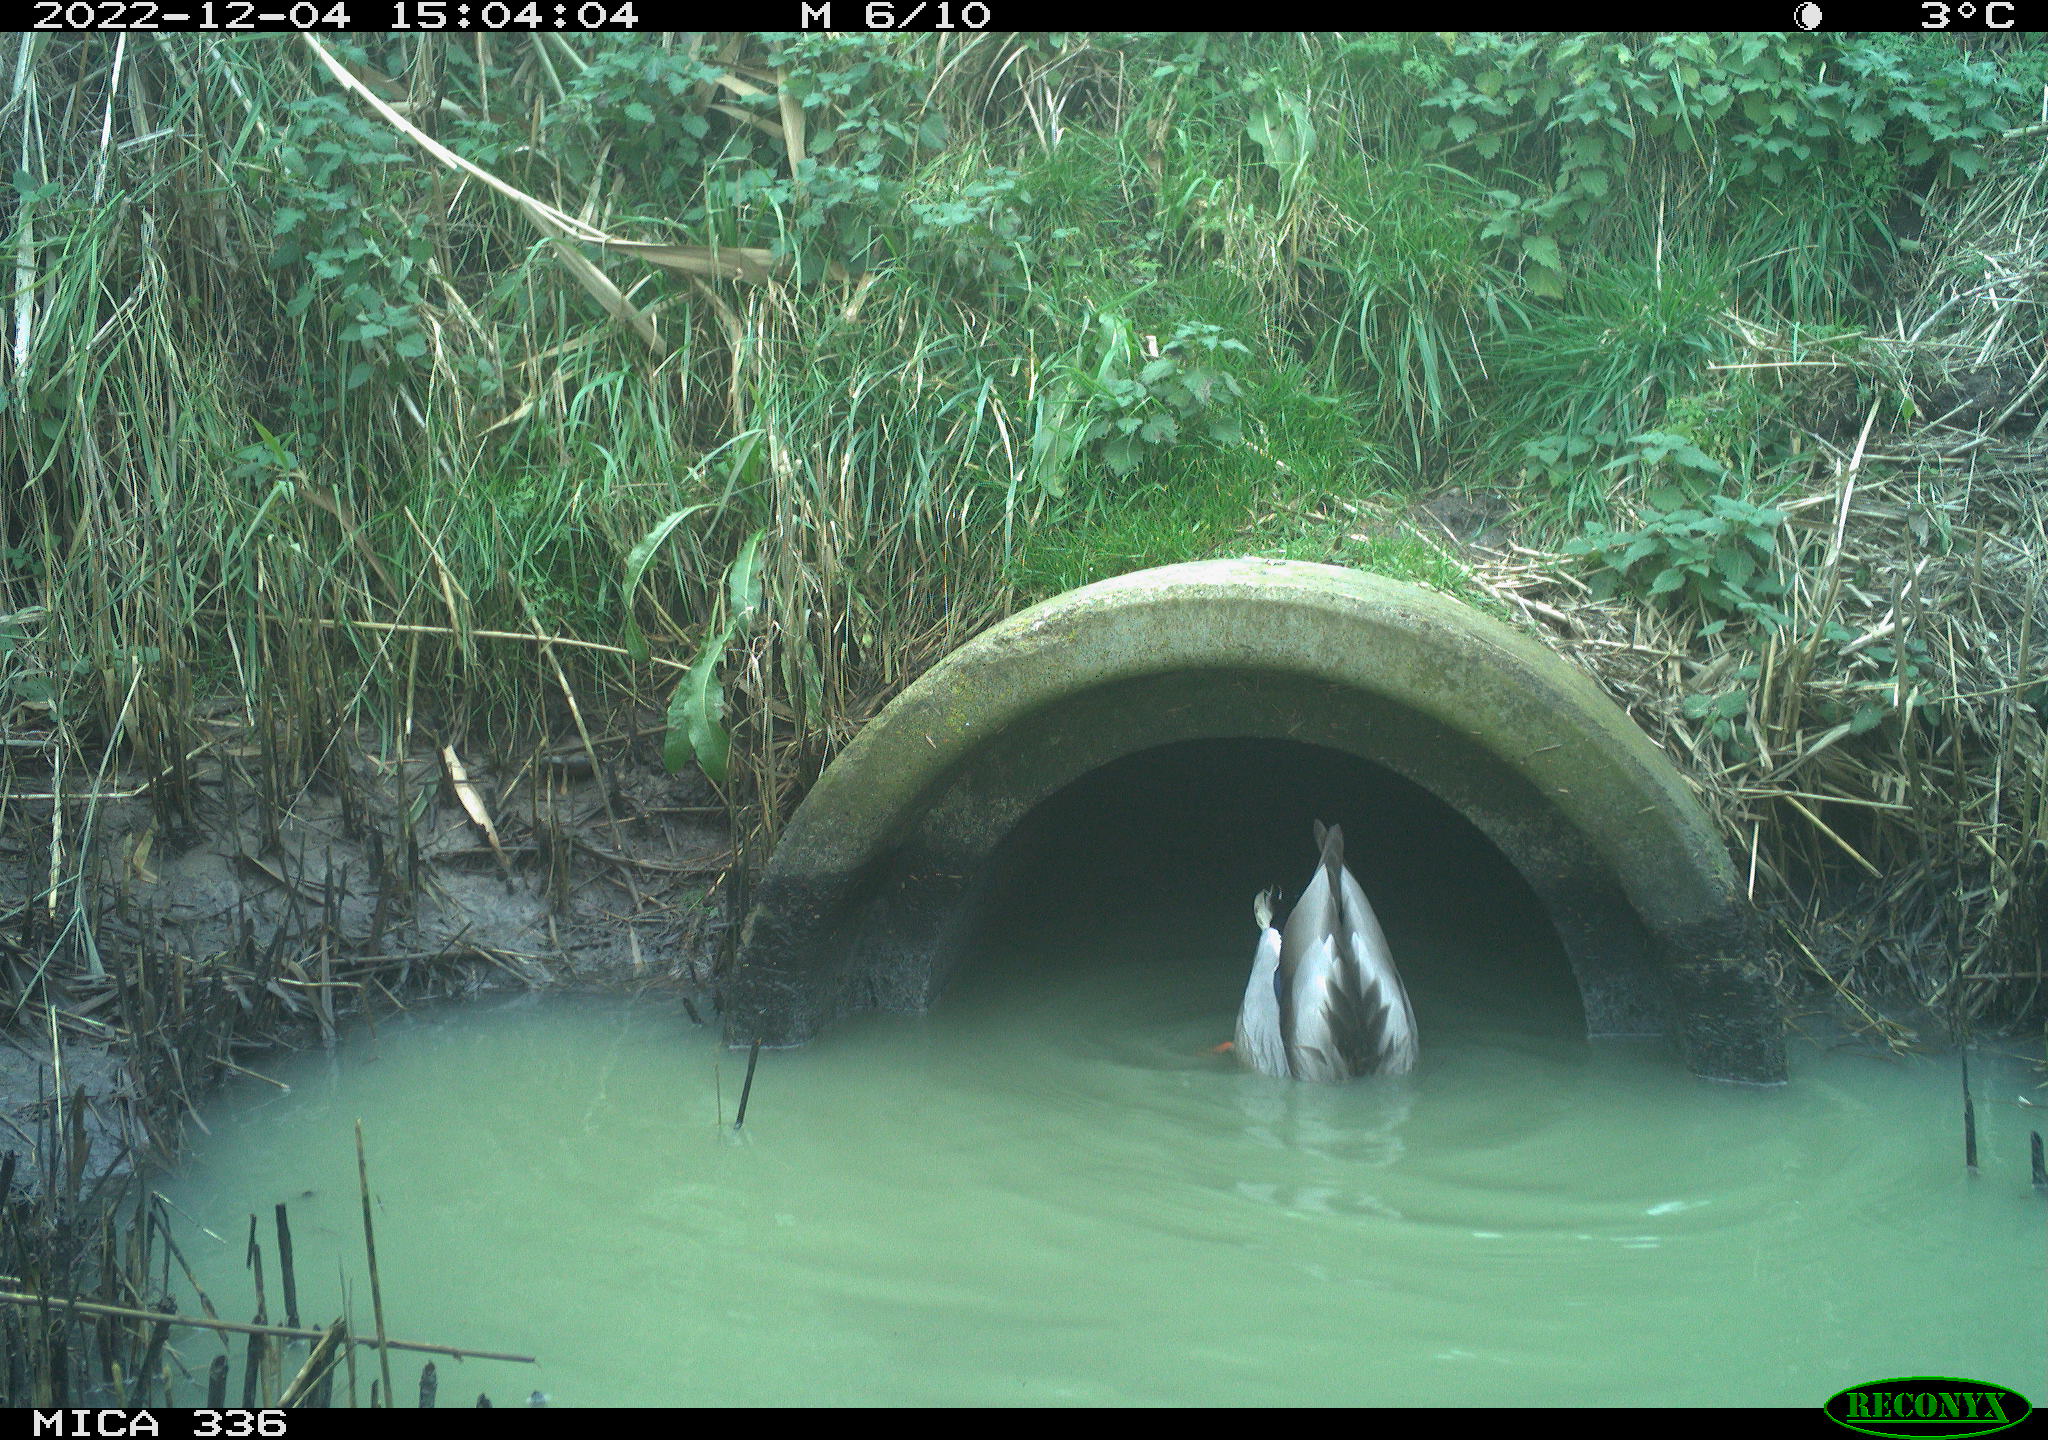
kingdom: Animalia
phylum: Chordata
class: Aves
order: Anseriformes
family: Anatidae
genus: Anas
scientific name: Anas
